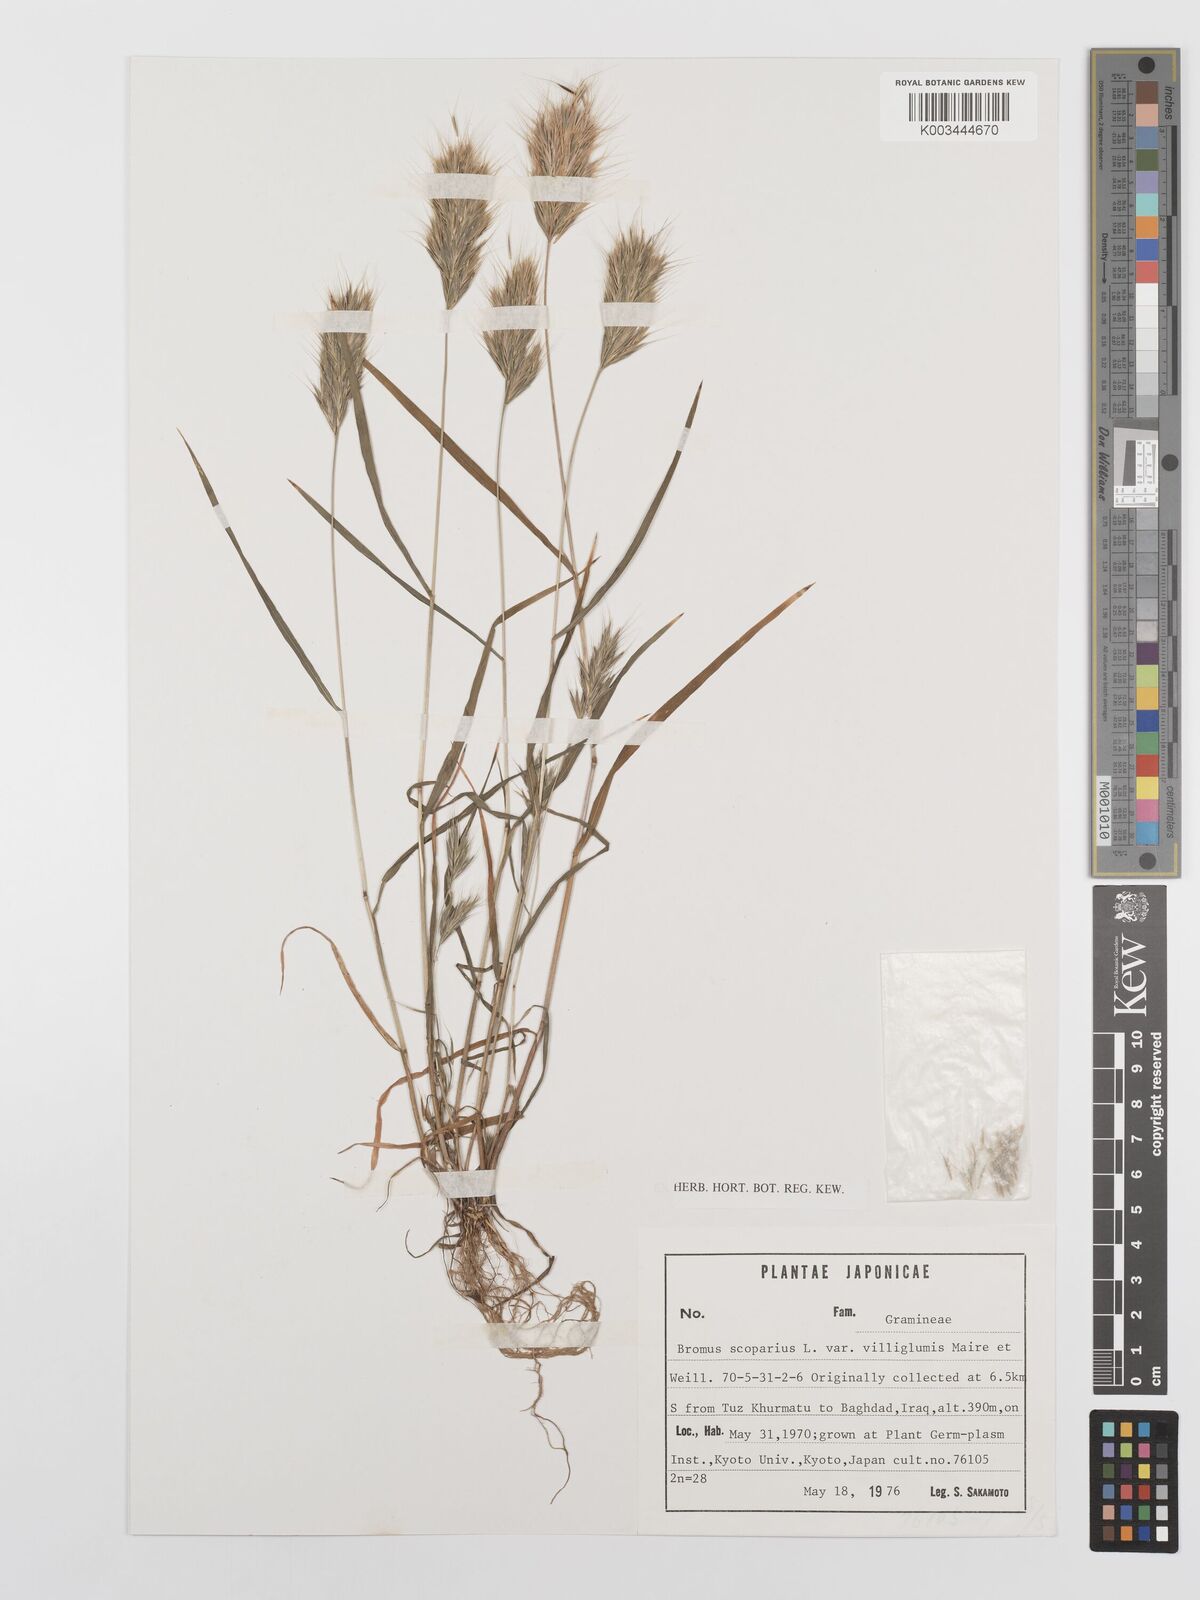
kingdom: Plantae
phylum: Tracheophyta
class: Liliopsida
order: Poales
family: Poaceae
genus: Bromus
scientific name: Bromus scoparius
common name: Broom brome
